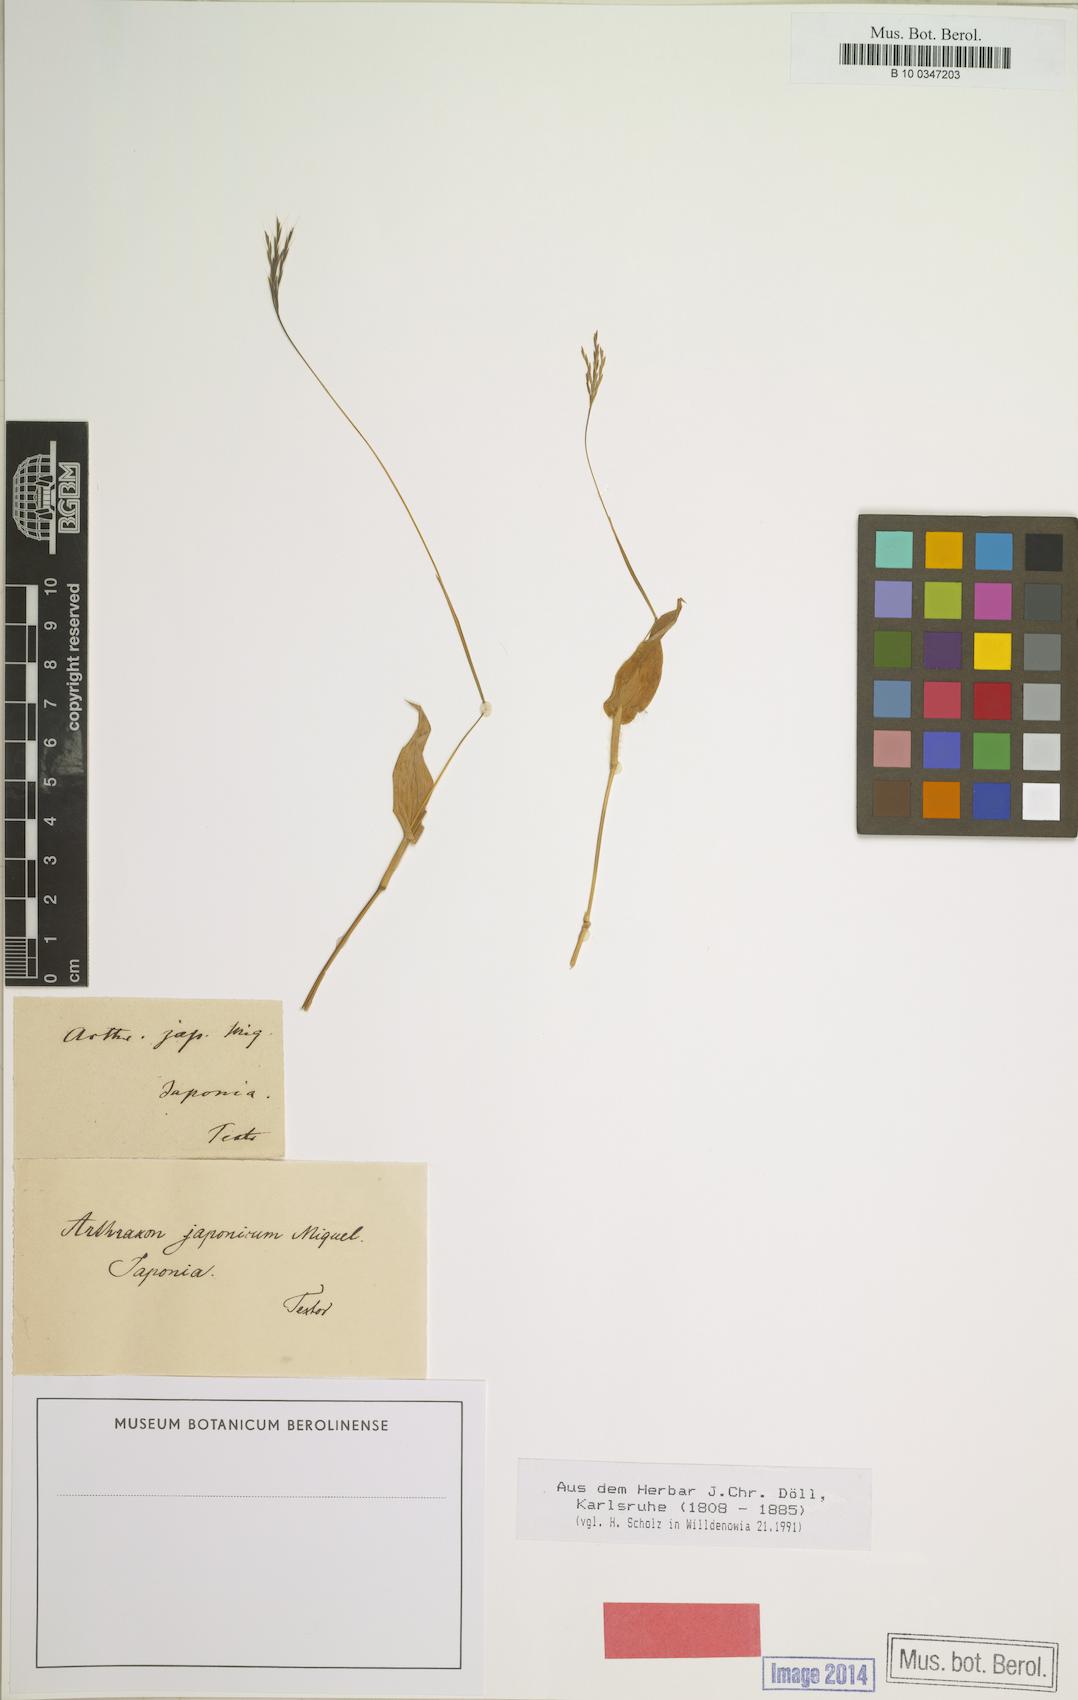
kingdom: Plantae
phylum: Tracheophyta
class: Liliopsida
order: Poales
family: Poaceae
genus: Arthraxon
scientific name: Arthraxon hispidus
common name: Small carpgrass
